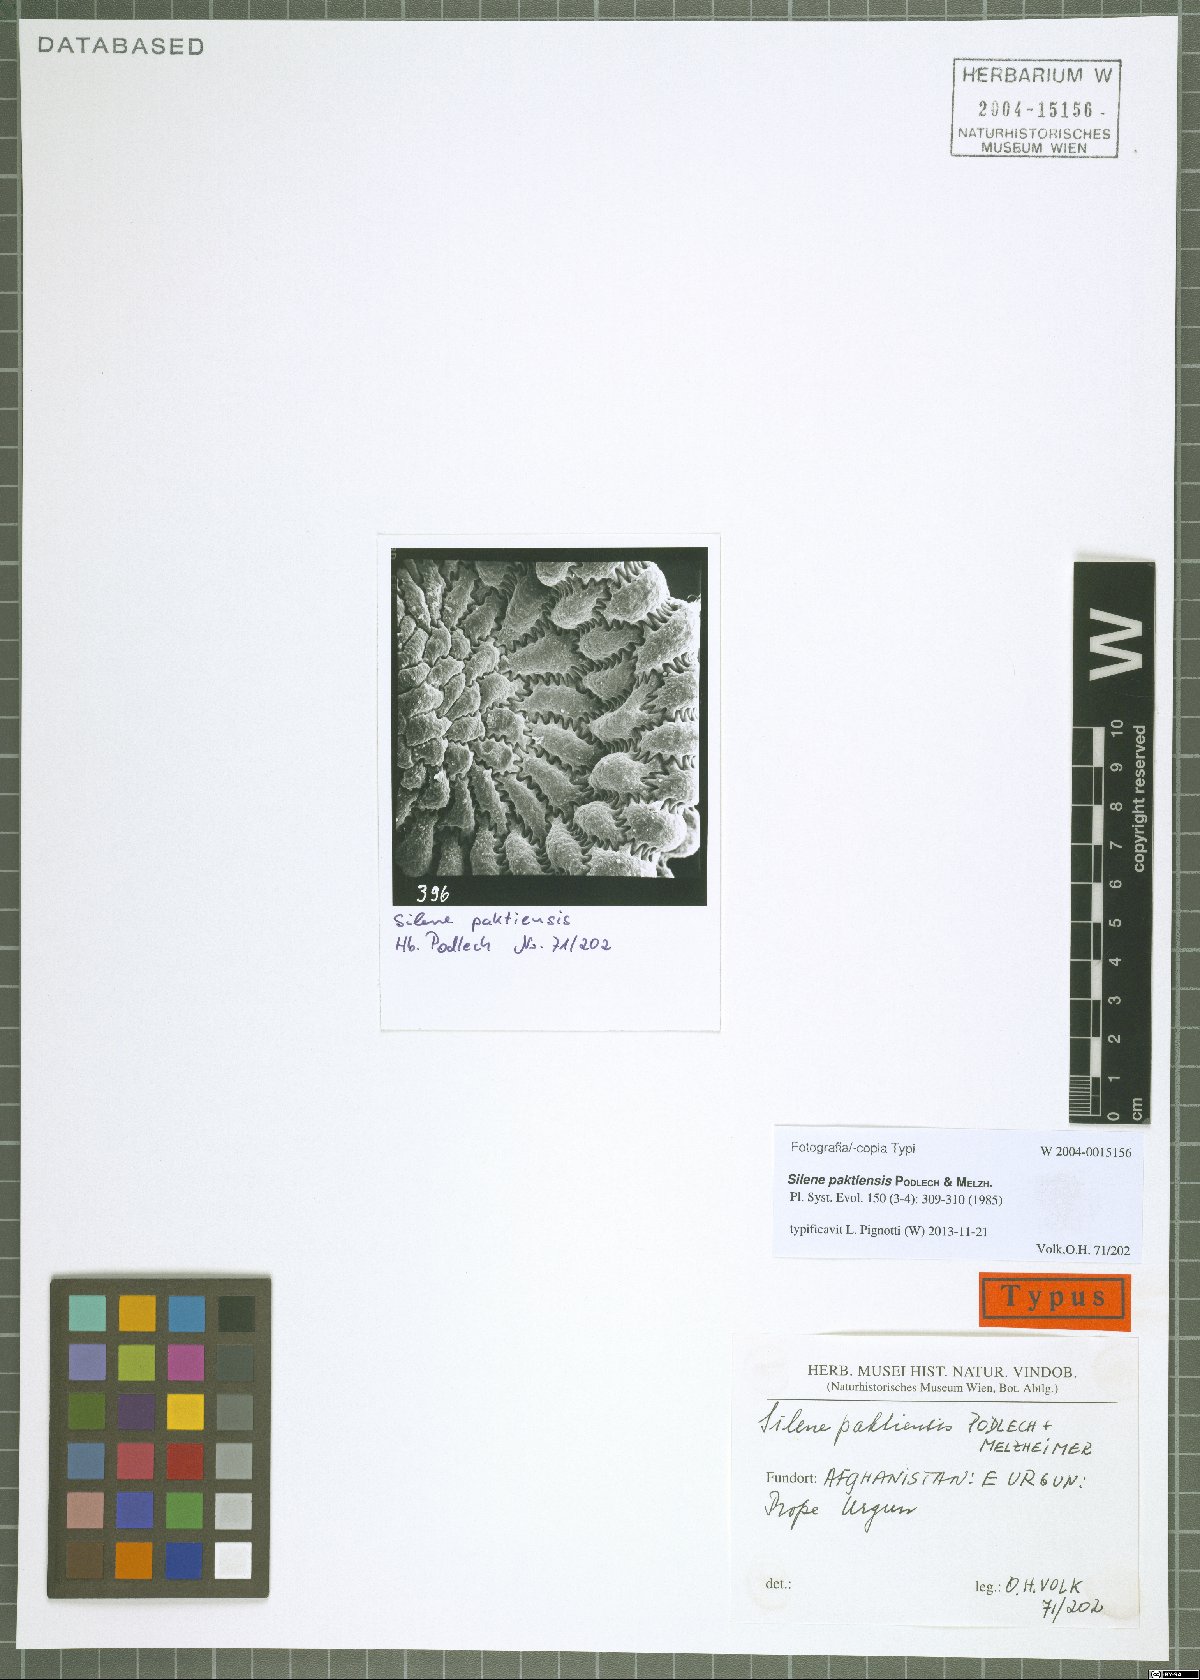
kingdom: Plantae
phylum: Tracheophyta
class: Magnoliopsida
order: Caryophyllales
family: Caryophyllaceae
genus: Silene
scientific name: Silene paktiensis
